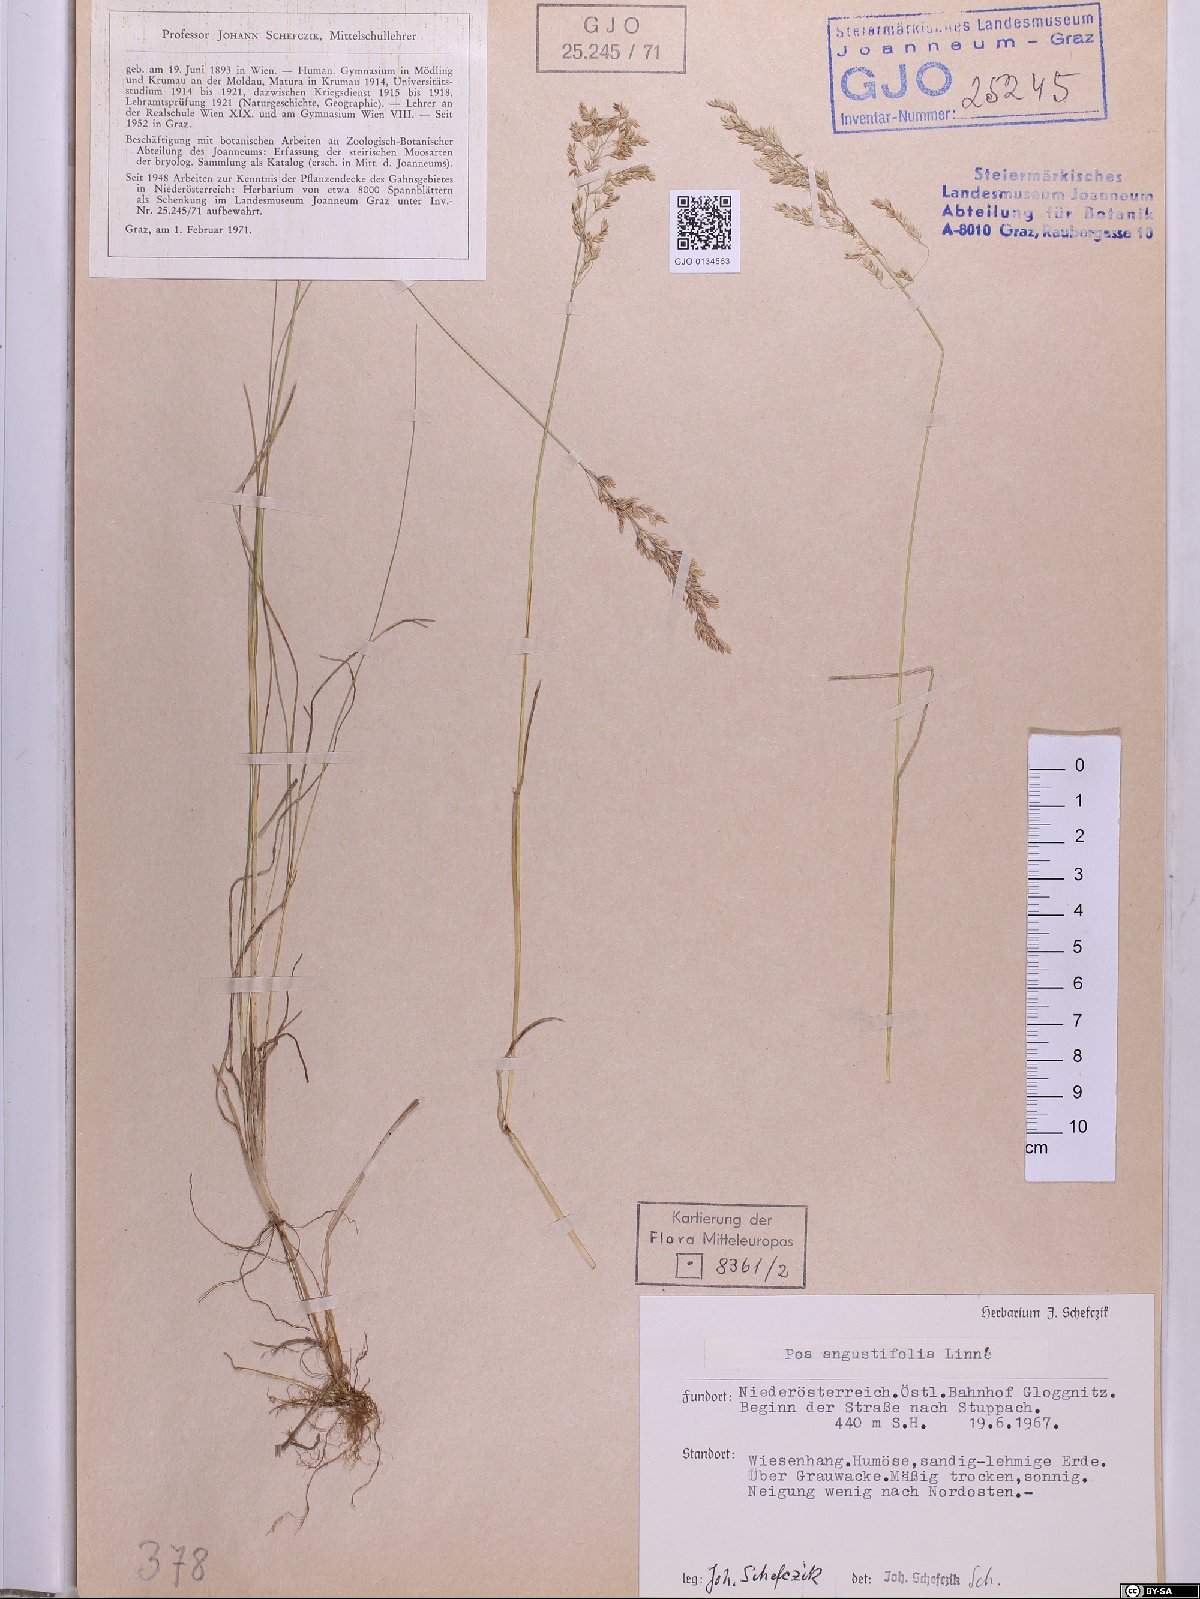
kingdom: Plantae
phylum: Tracheophyta
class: Liliopsida
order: Poales
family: Poaceae
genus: Poa
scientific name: Poa angustifolia
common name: Narrow-leaved meadow-grass
